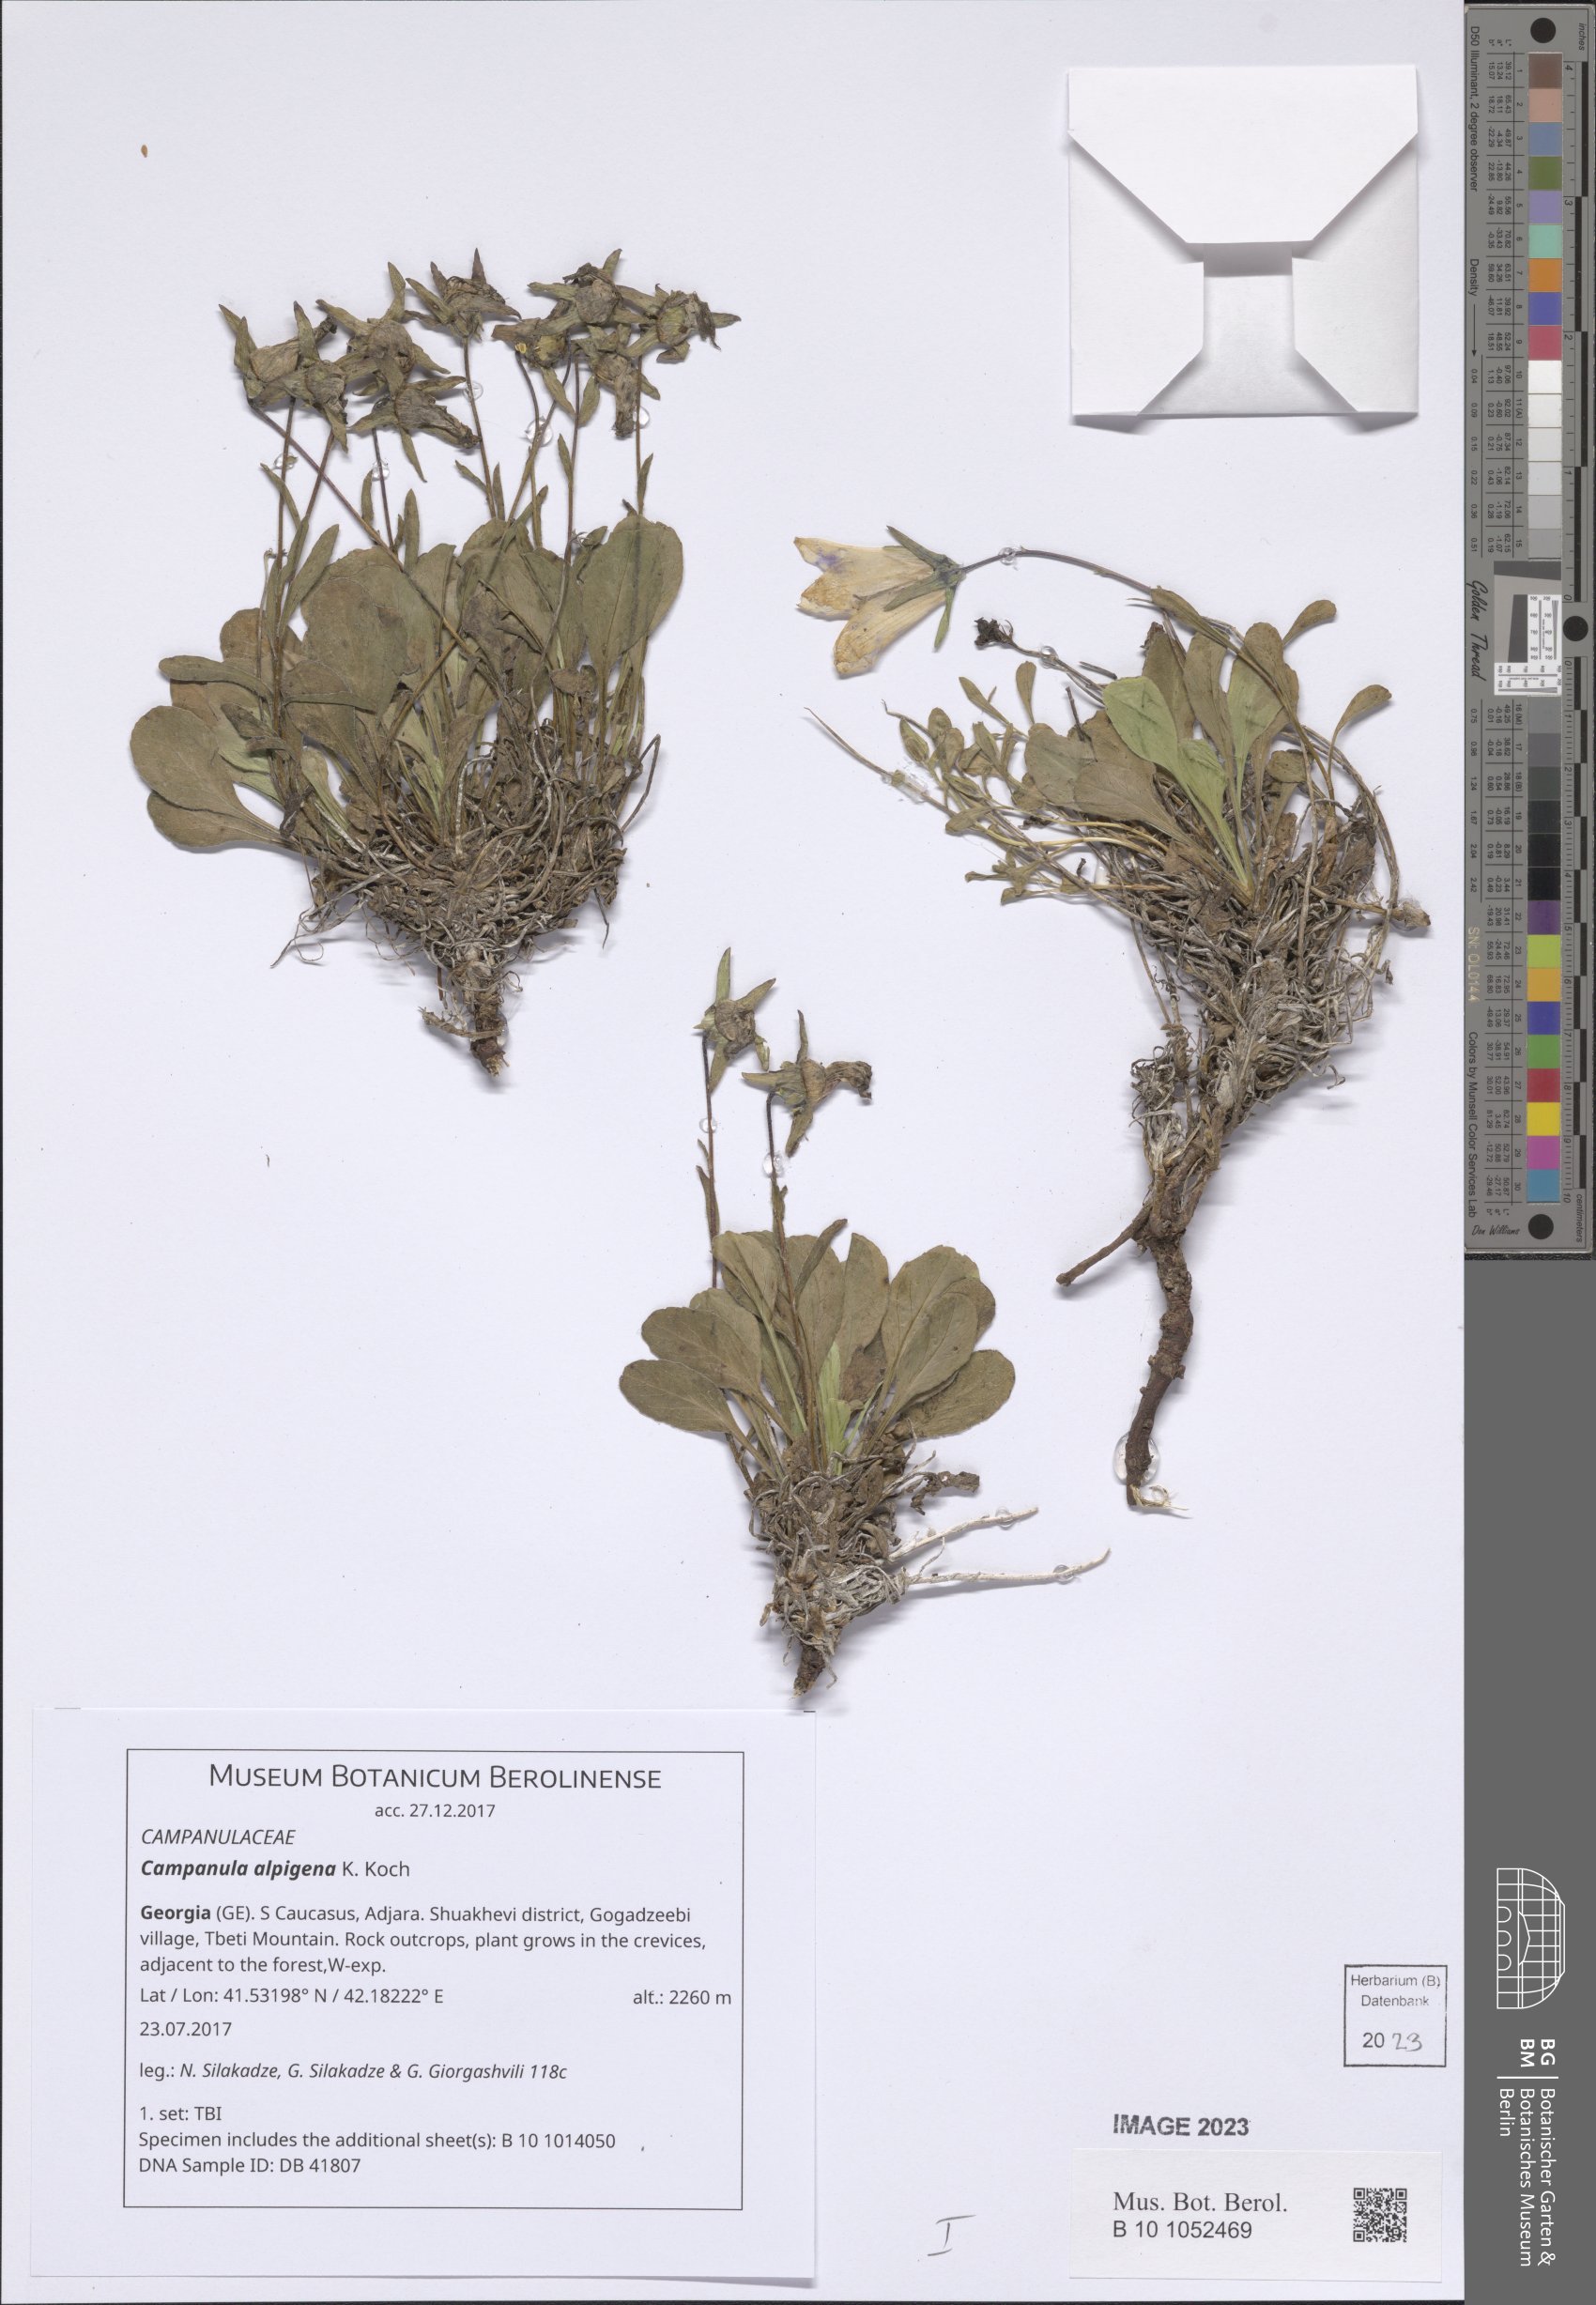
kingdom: Plantae
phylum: Tracheophyta
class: Magnoliopsida
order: Asterales
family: Campanulaceae
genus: Campanula
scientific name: Campanula saxifraga
